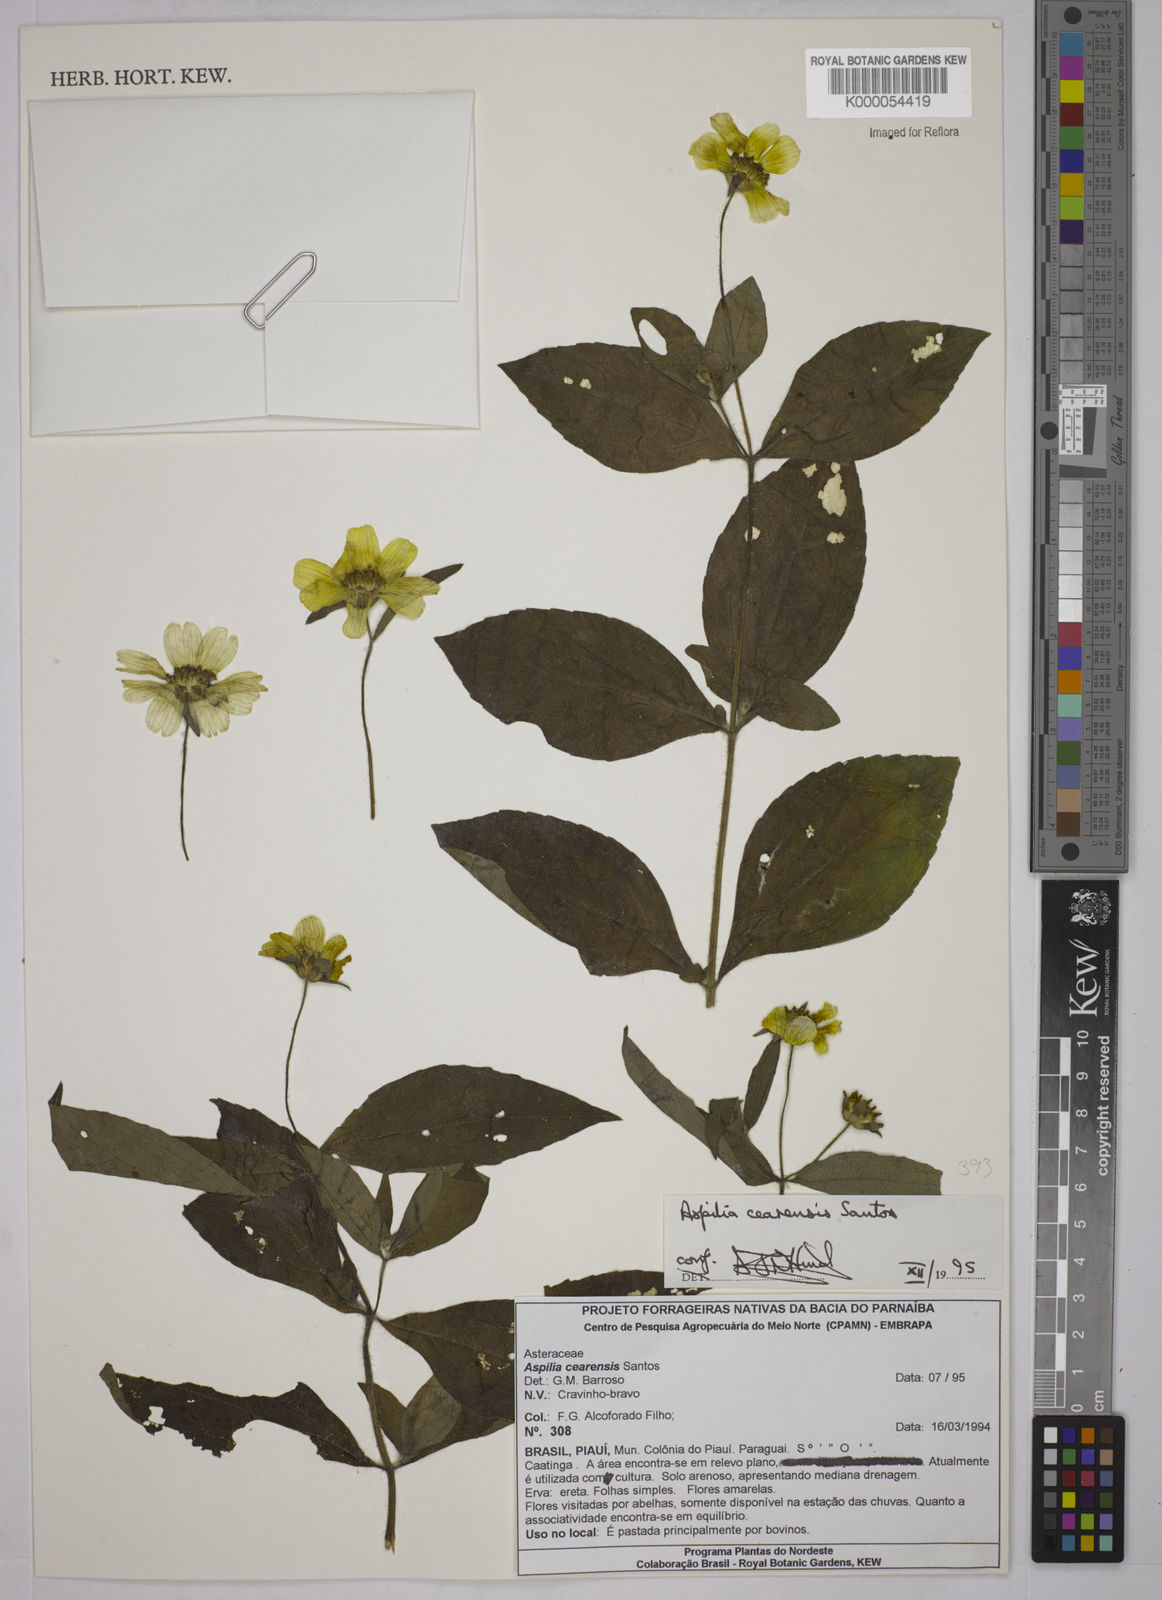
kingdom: Plantae
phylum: Tracheophyta
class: Magnoliopsida
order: Asterales
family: Asteraceae
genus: Aspilia
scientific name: Aspilia cearensis
